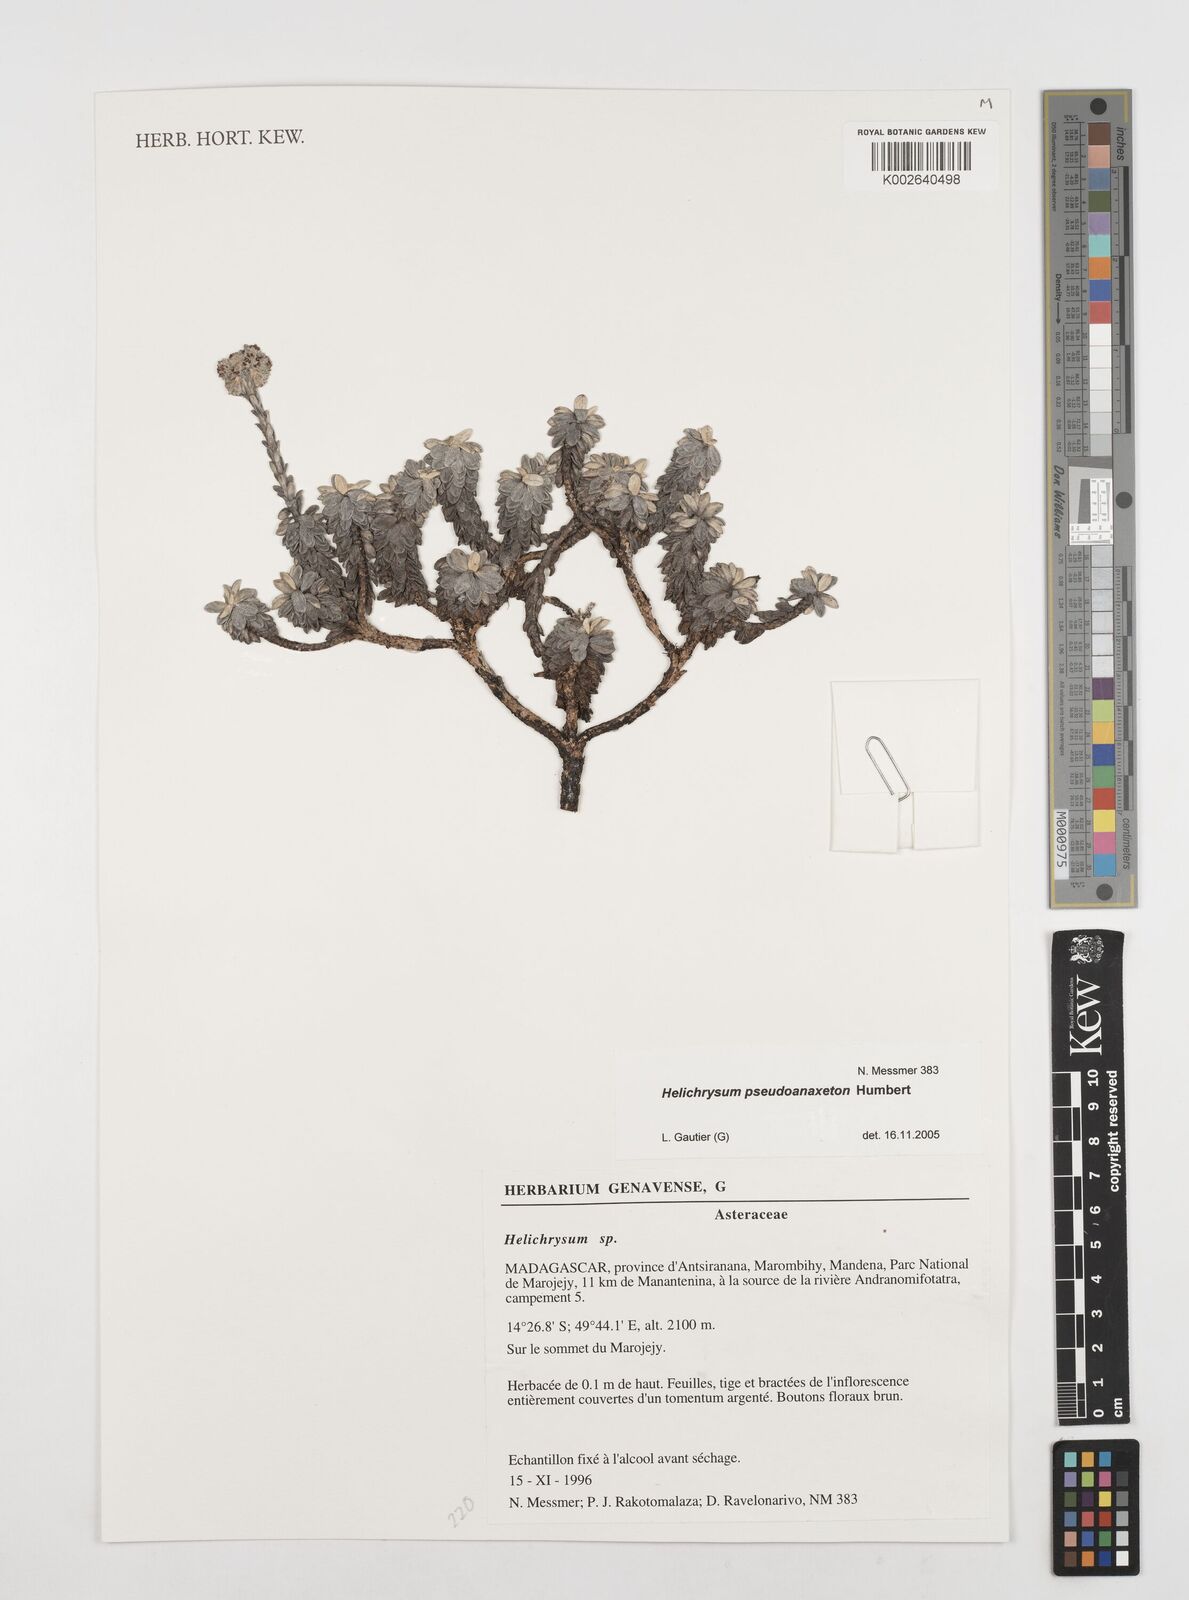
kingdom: Plantae
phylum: Tracheophyta
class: Magnoliopsida
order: Asterales
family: Asteraceae
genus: Helichrysum
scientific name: Helichrysum pseudoanaxeton
